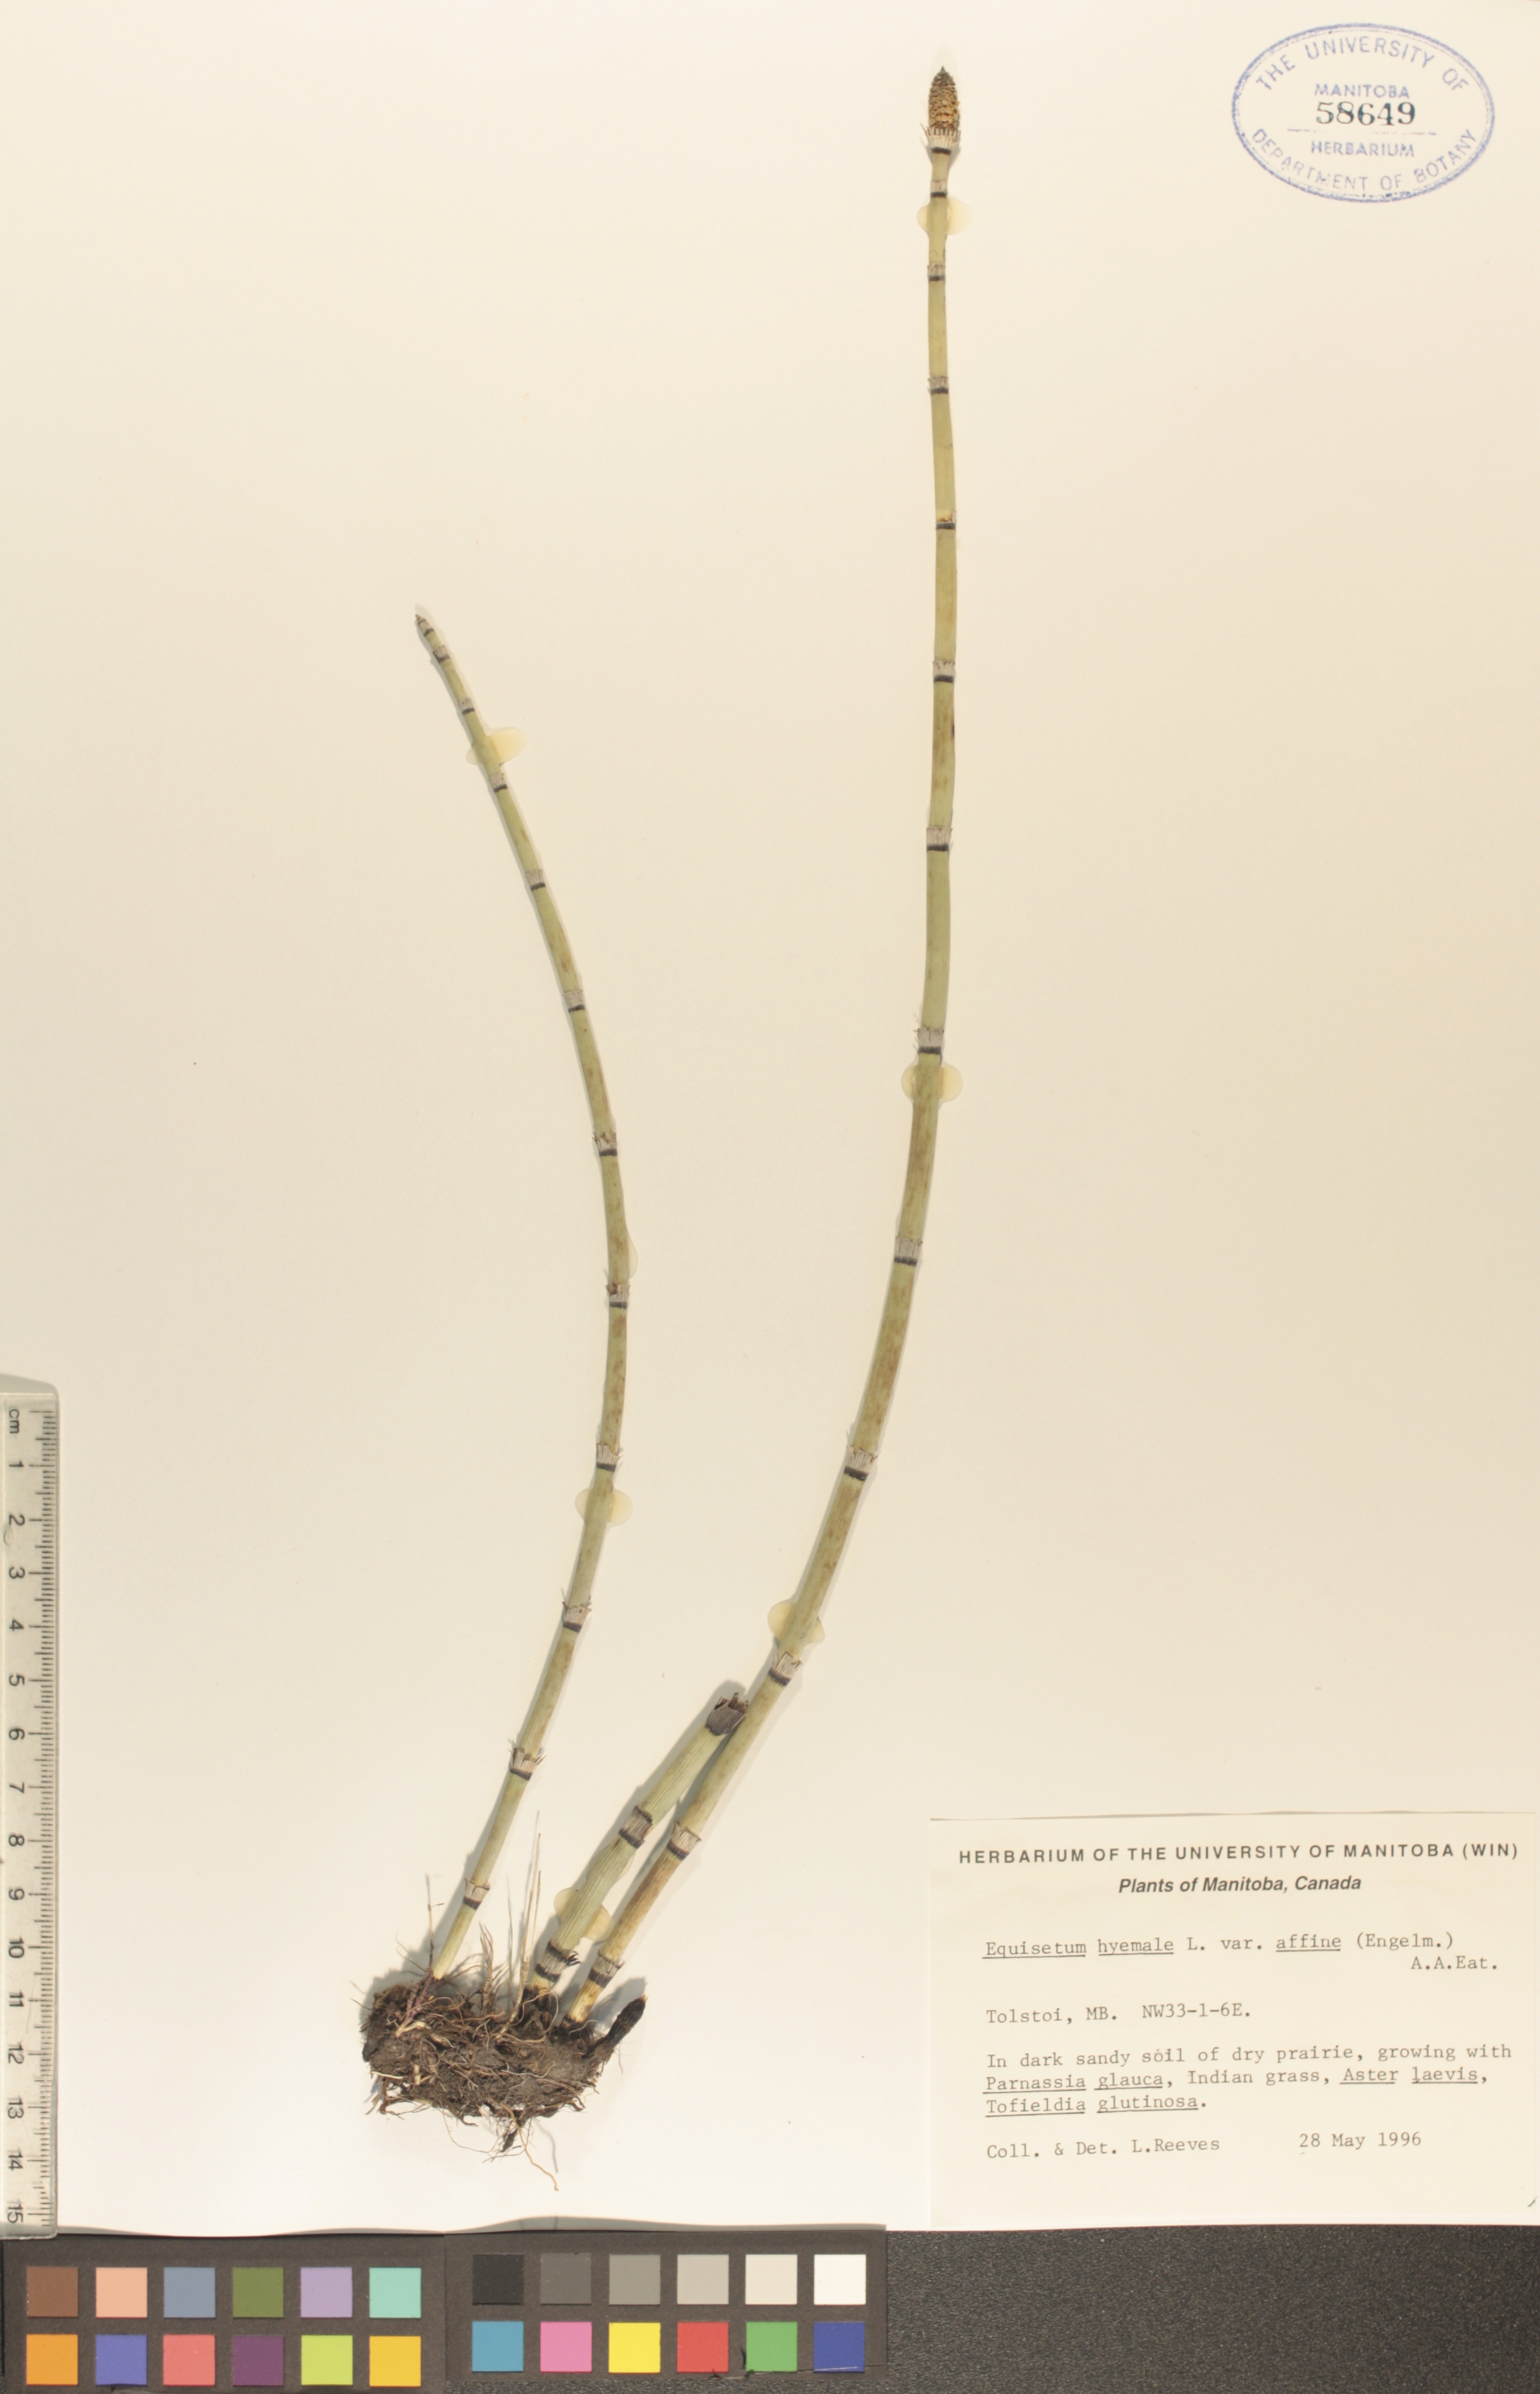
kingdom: Plantae
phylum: Tracheophyta
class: Polypodiopsida
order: Equisetales
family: Equisetaceae
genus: Equisetum
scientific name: Equisetum praealtum
